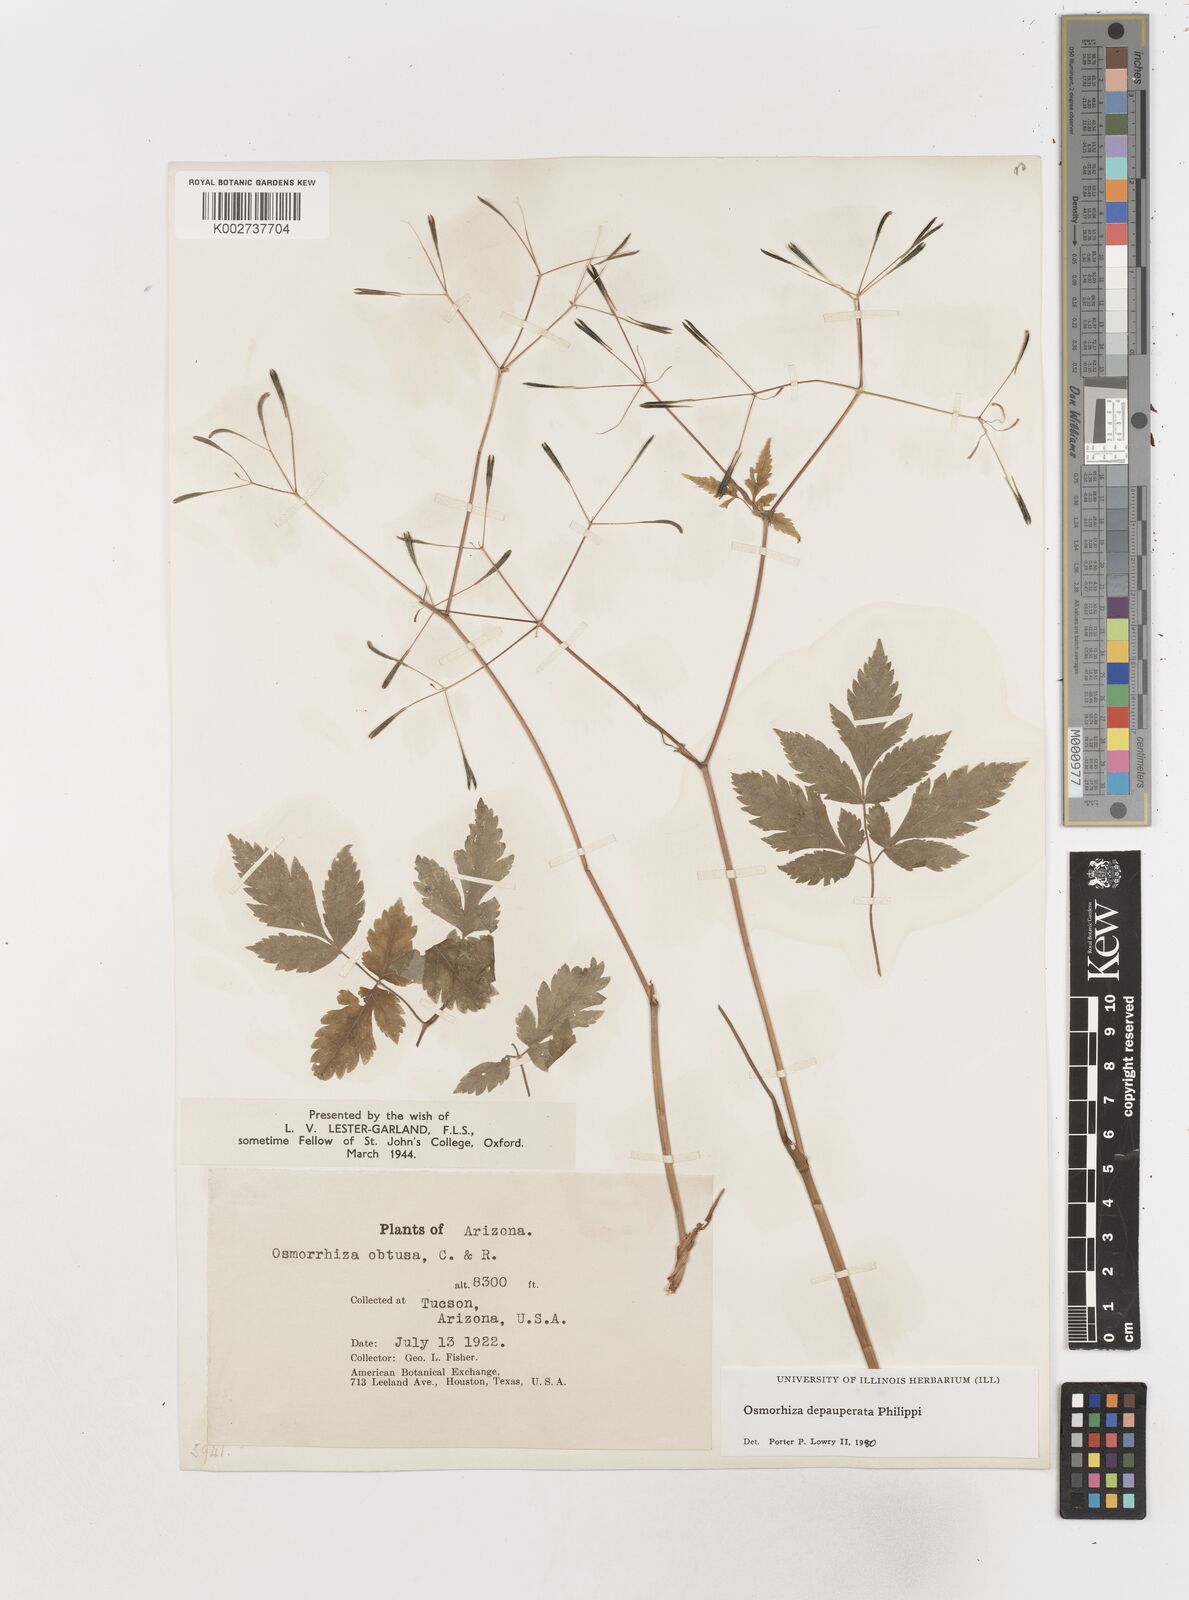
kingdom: Plantae
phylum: Tracheophyta
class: Magnoliopsida
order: Apiales
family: Apiaceae
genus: Osmorhiza
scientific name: Osmorhiza depauperata
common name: Blunt sweet cicely
